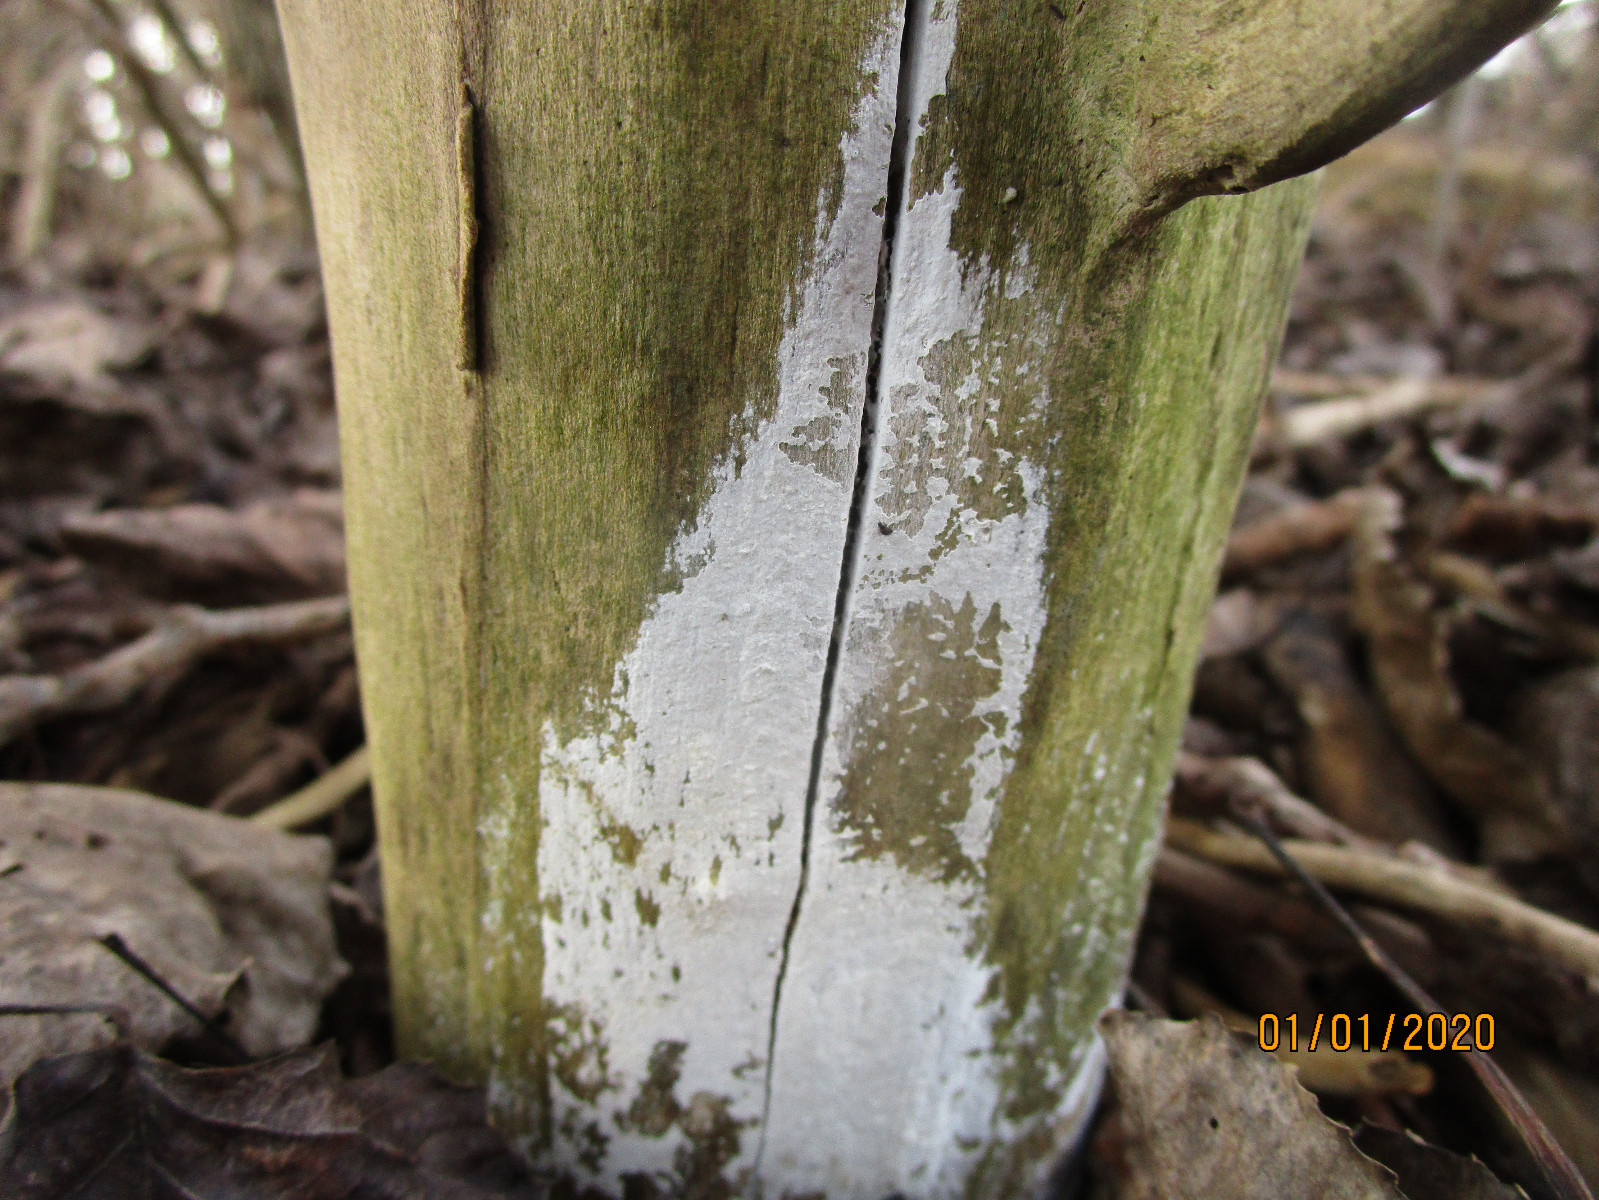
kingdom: Fungi
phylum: Basidiomycota
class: Agaricomycetes
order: Corticiales
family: Corticiaceae
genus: Lyomyces
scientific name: Lyomyces sambuci
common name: almindelig hyldehinde
